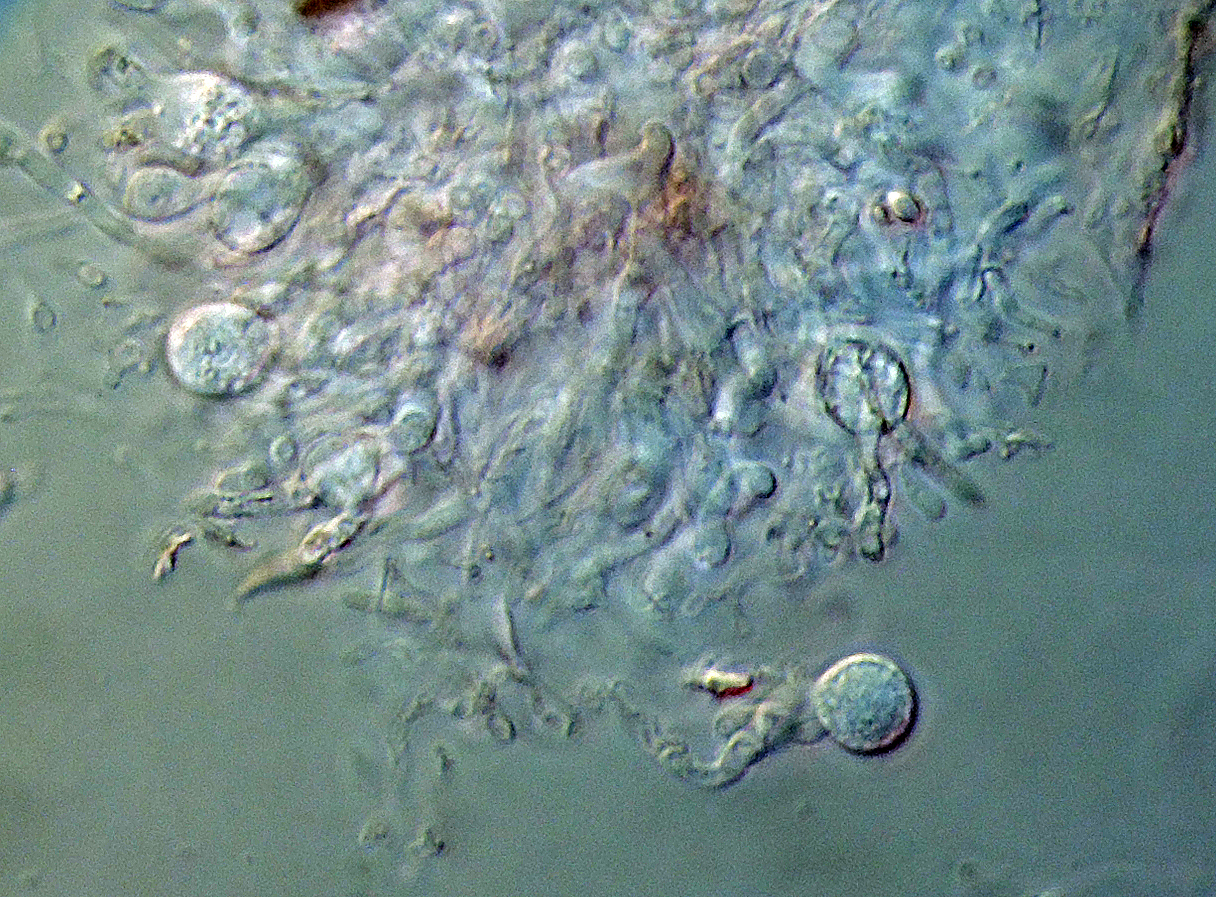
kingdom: Fungi
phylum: Basidiomycota
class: Agaricomycetes
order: Auriculariales
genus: Stypella
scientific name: Stypella grilletii
